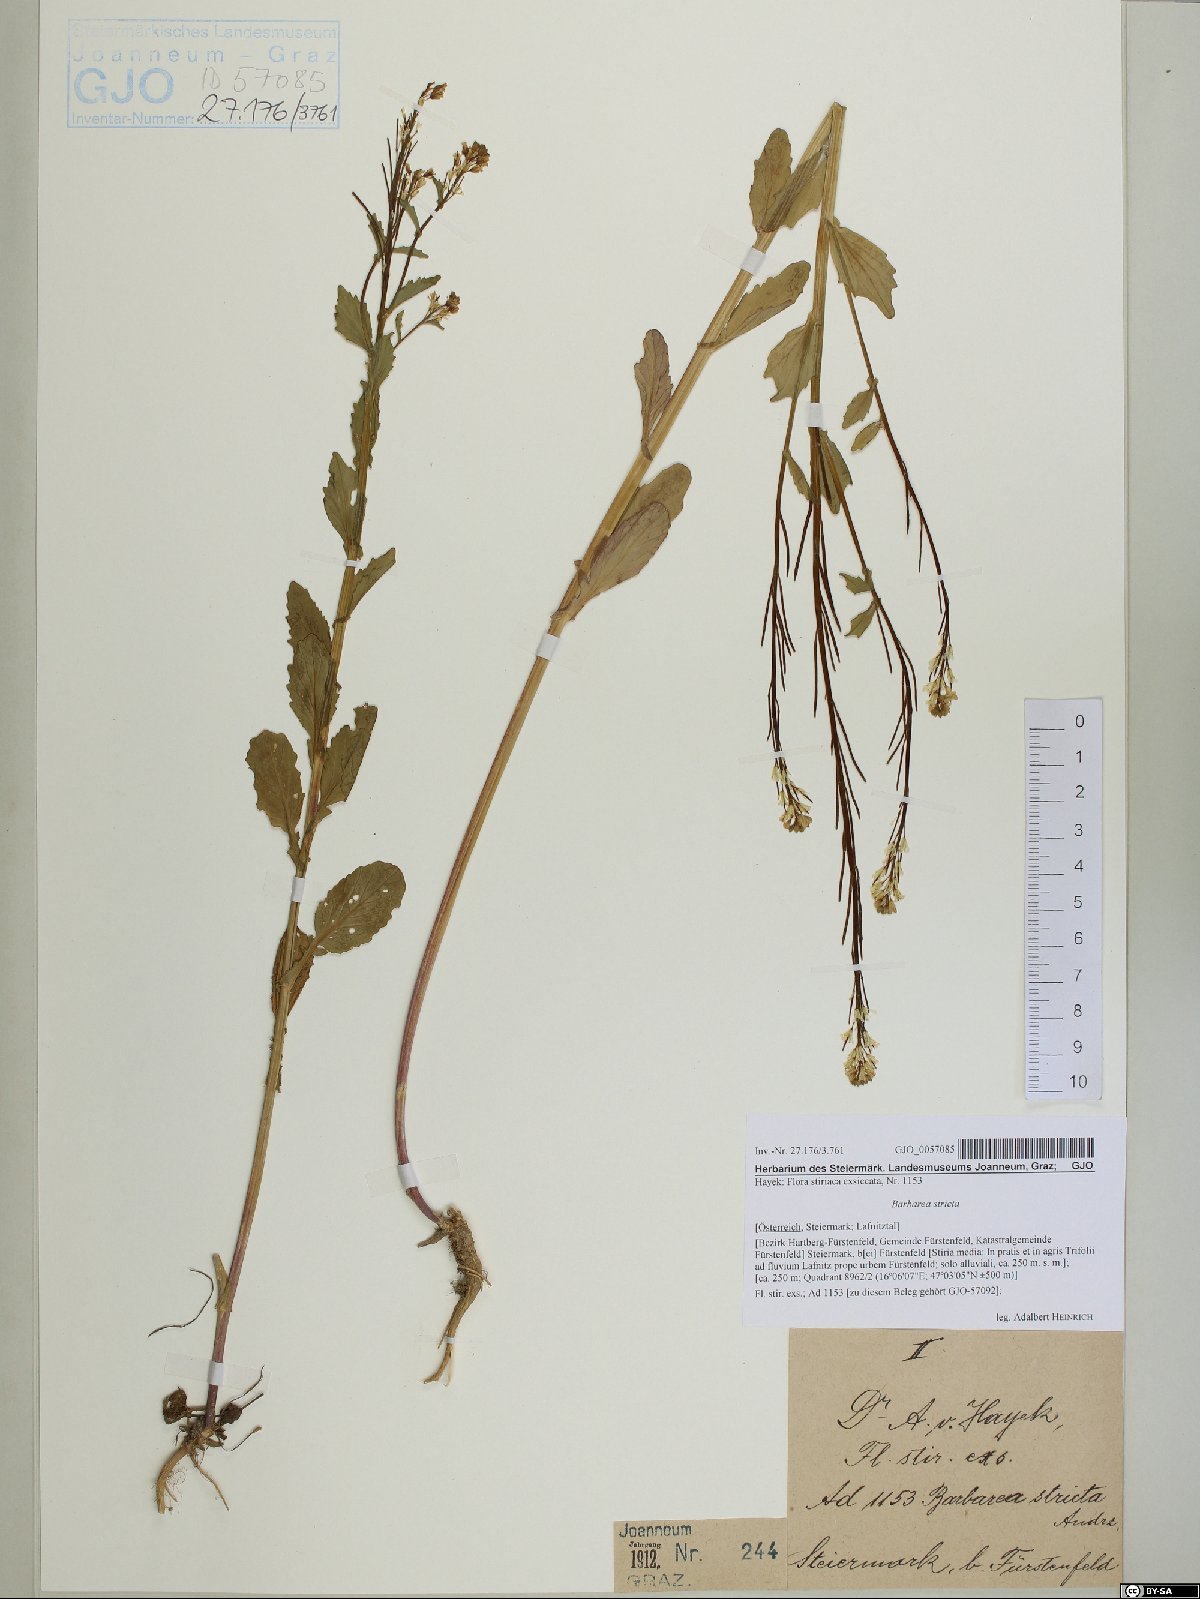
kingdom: Plantae
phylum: Tracheophyta
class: Magnoliopsida
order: Brassicales
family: Brassicaceae
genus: Barbarea
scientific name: Barbarea stricta
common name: Small-flowered winter-cress
